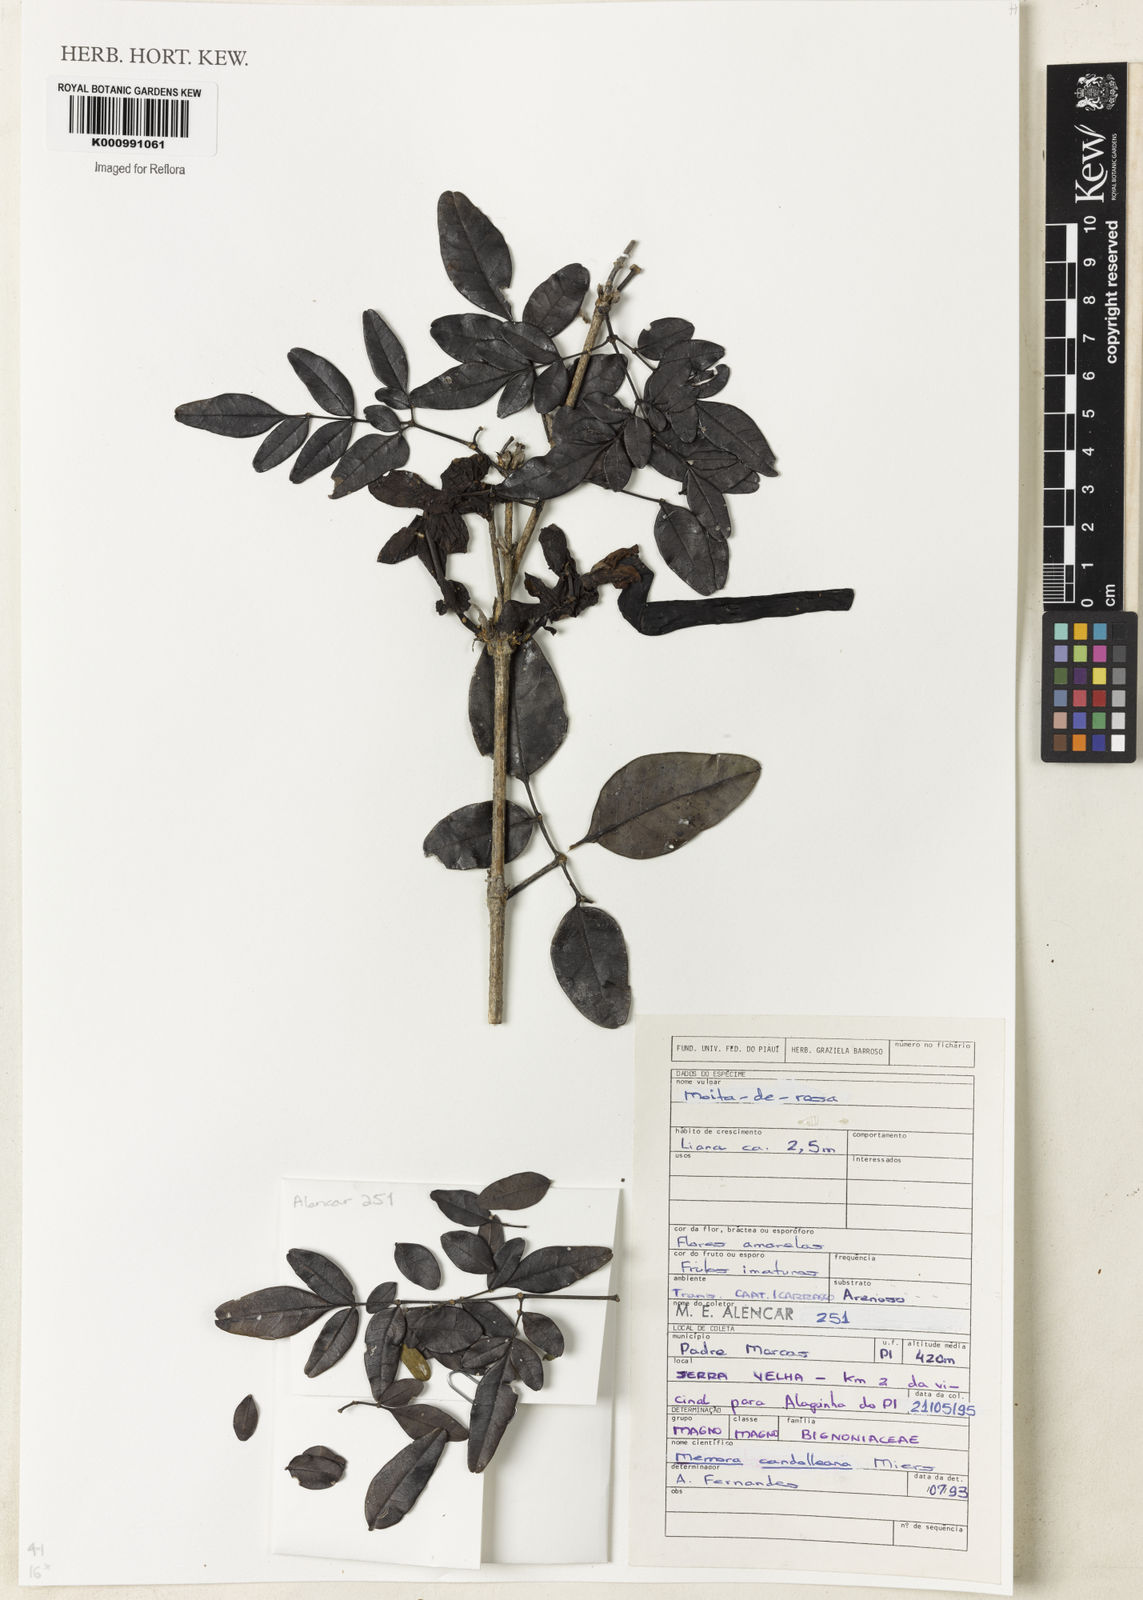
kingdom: Plantae
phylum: Tracheophyta
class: Magnoliopsida
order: Lamiales
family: Bignoniaceae
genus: Adenocalymma
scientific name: Adenocalymma candolleanum
